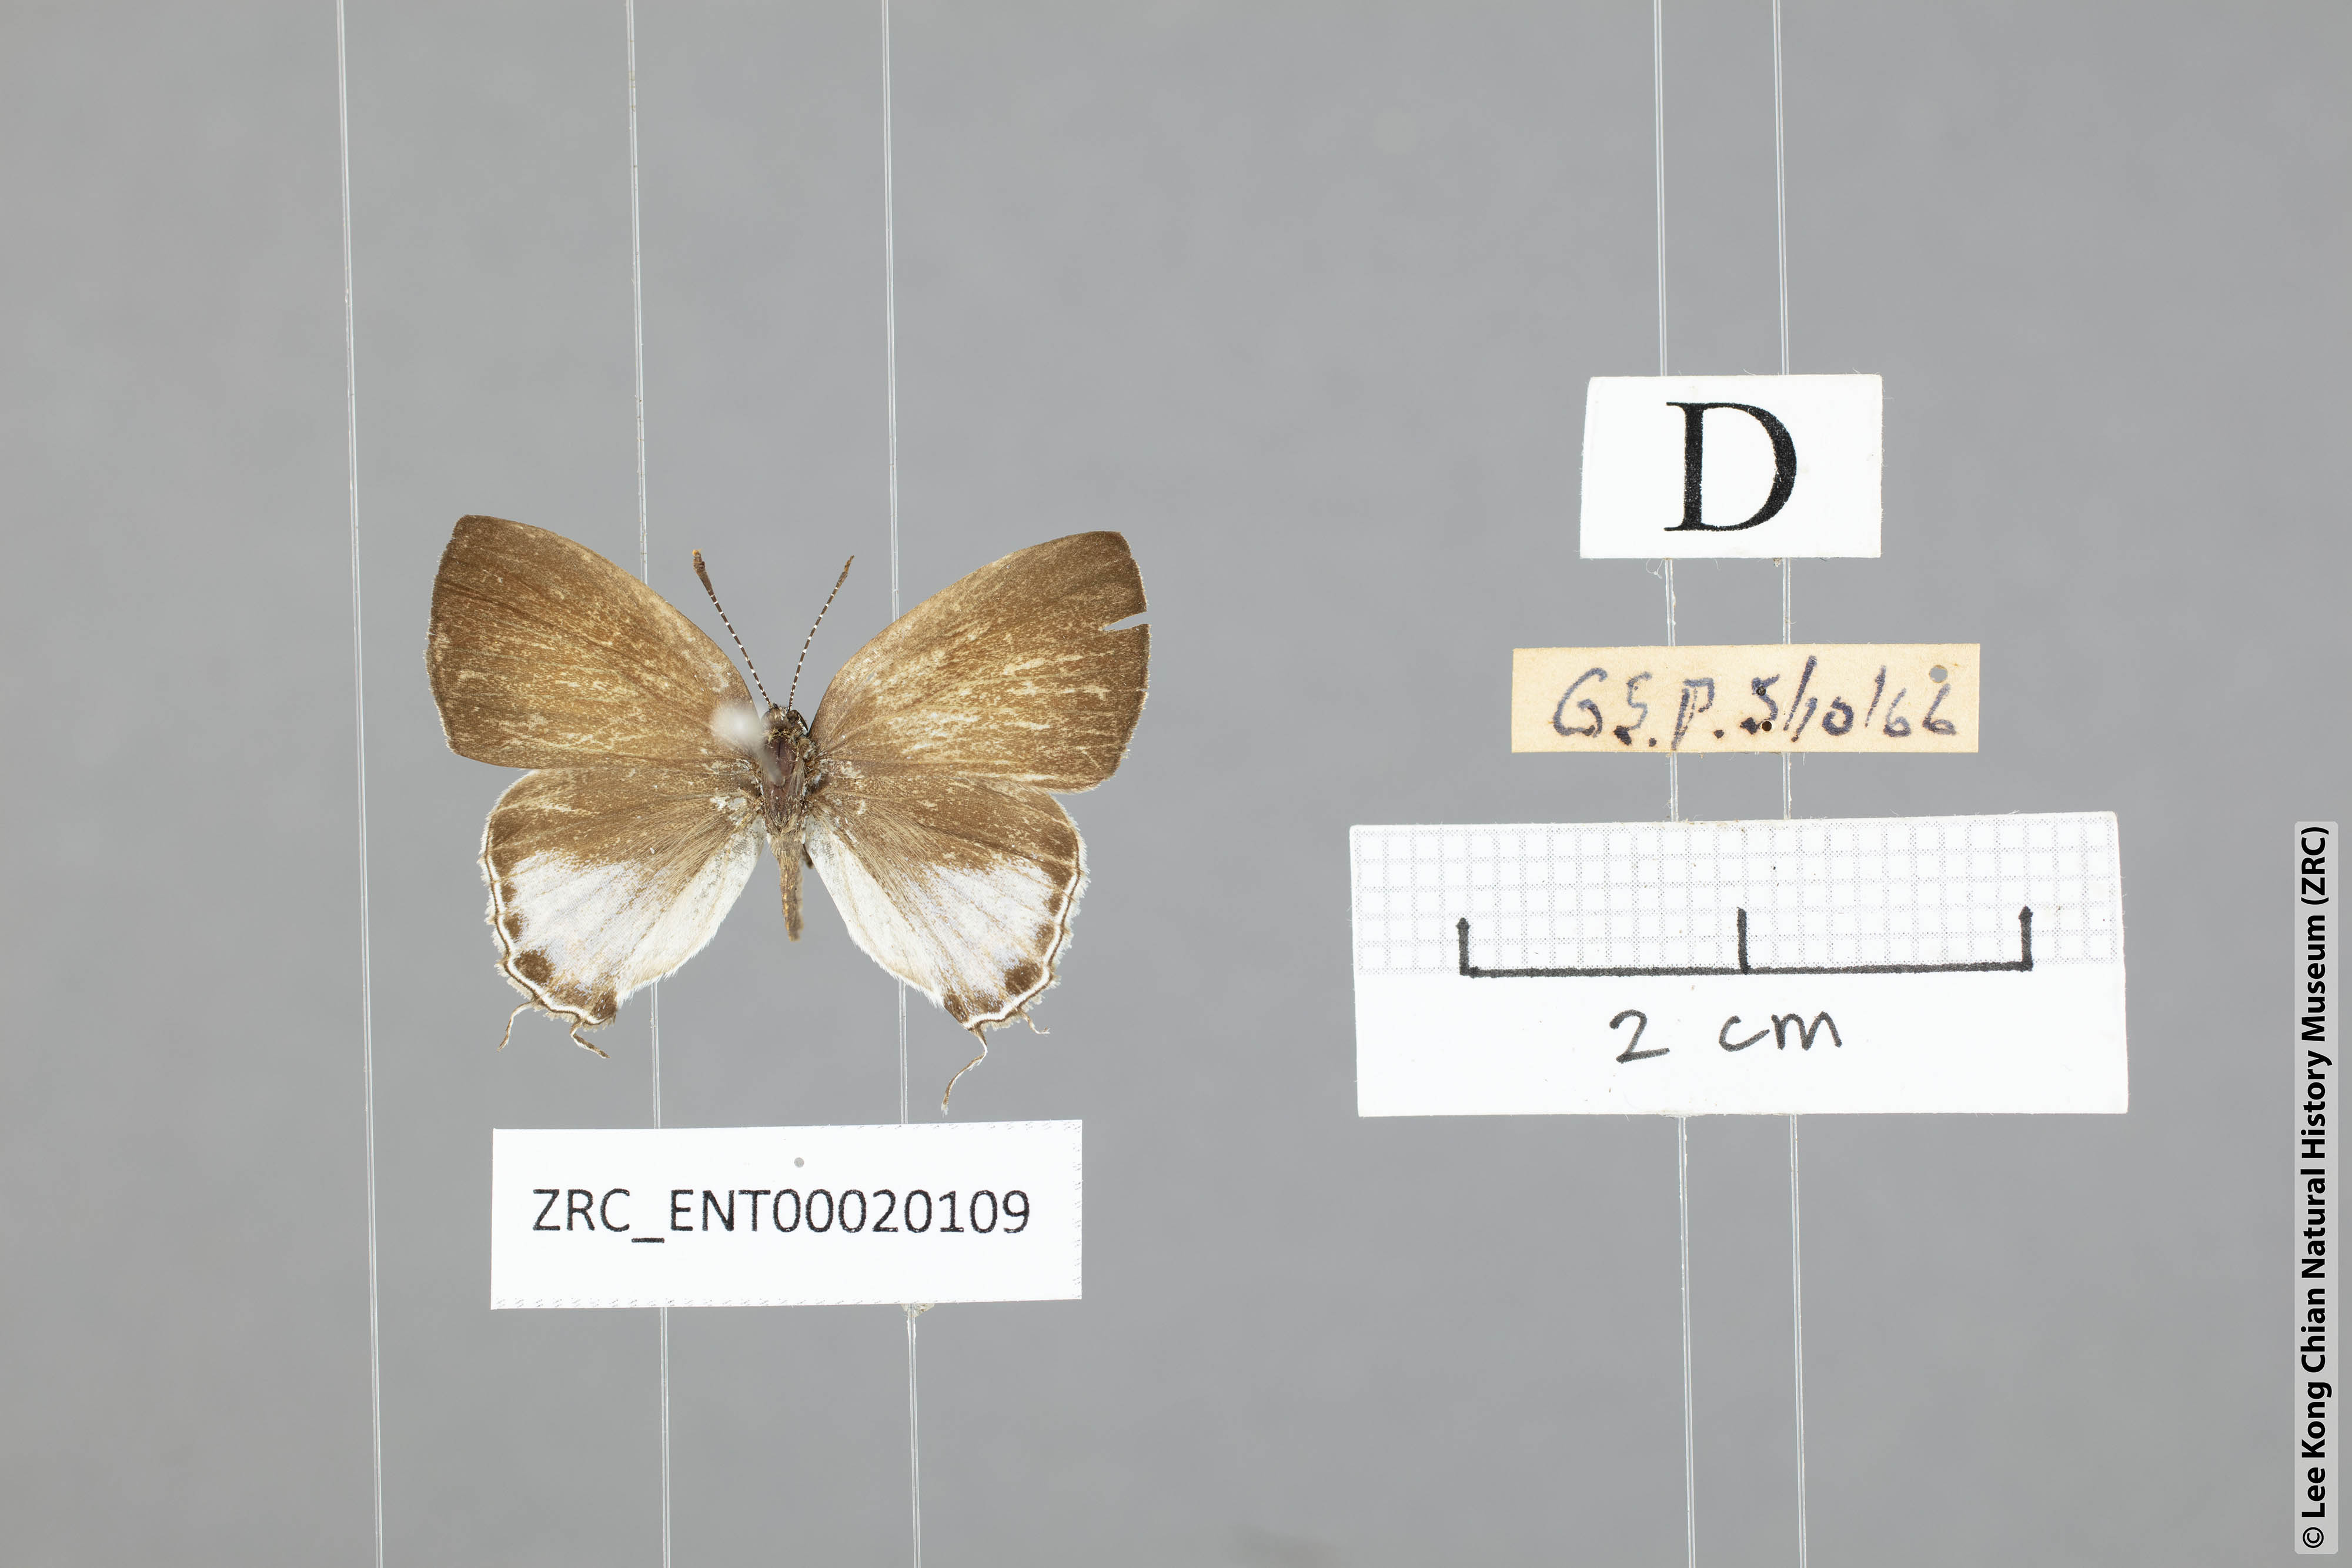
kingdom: Animalia
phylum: Arthropoda
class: Insecta
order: Lepidoptera
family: Lycaenidae
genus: Chliaria
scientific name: Chliaria othona
